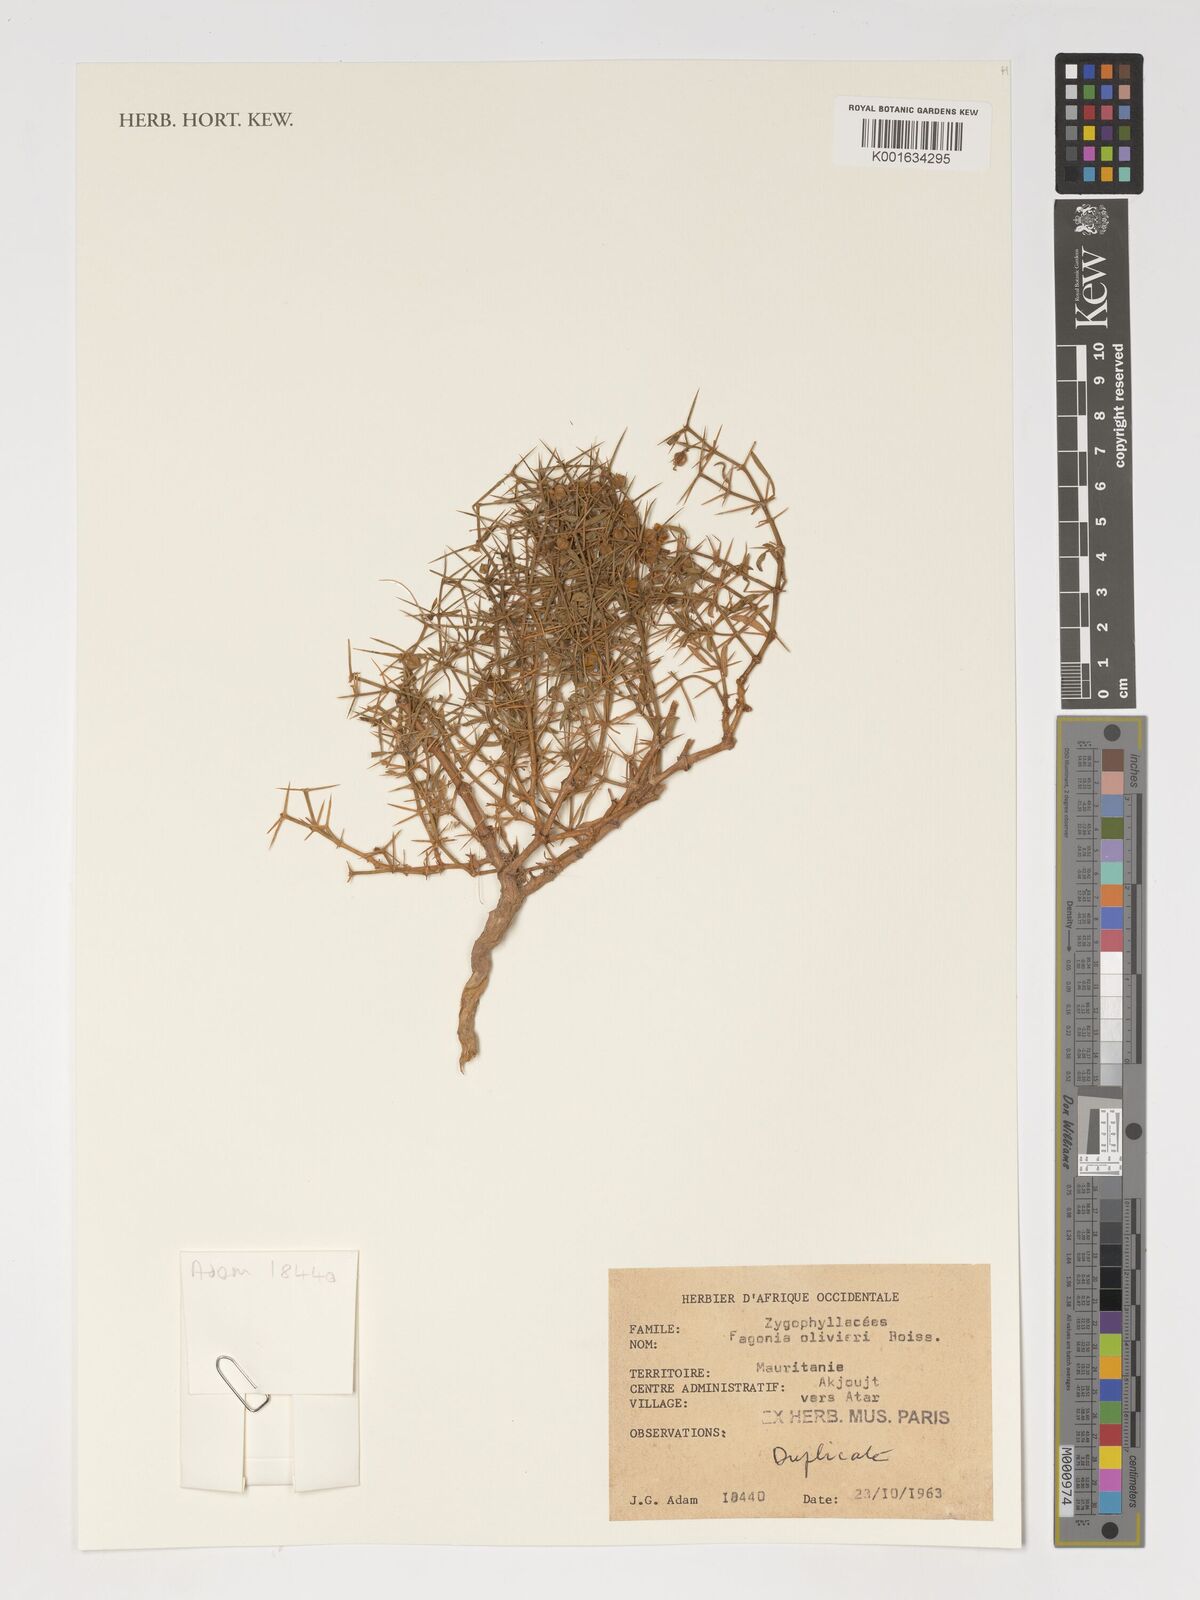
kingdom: Plantae
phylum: Tracheophyta
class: Magnoliopsida
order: Zygophyllales
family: Zygophyllaceae
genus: Fagonia
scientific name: Fagonia olivieri
